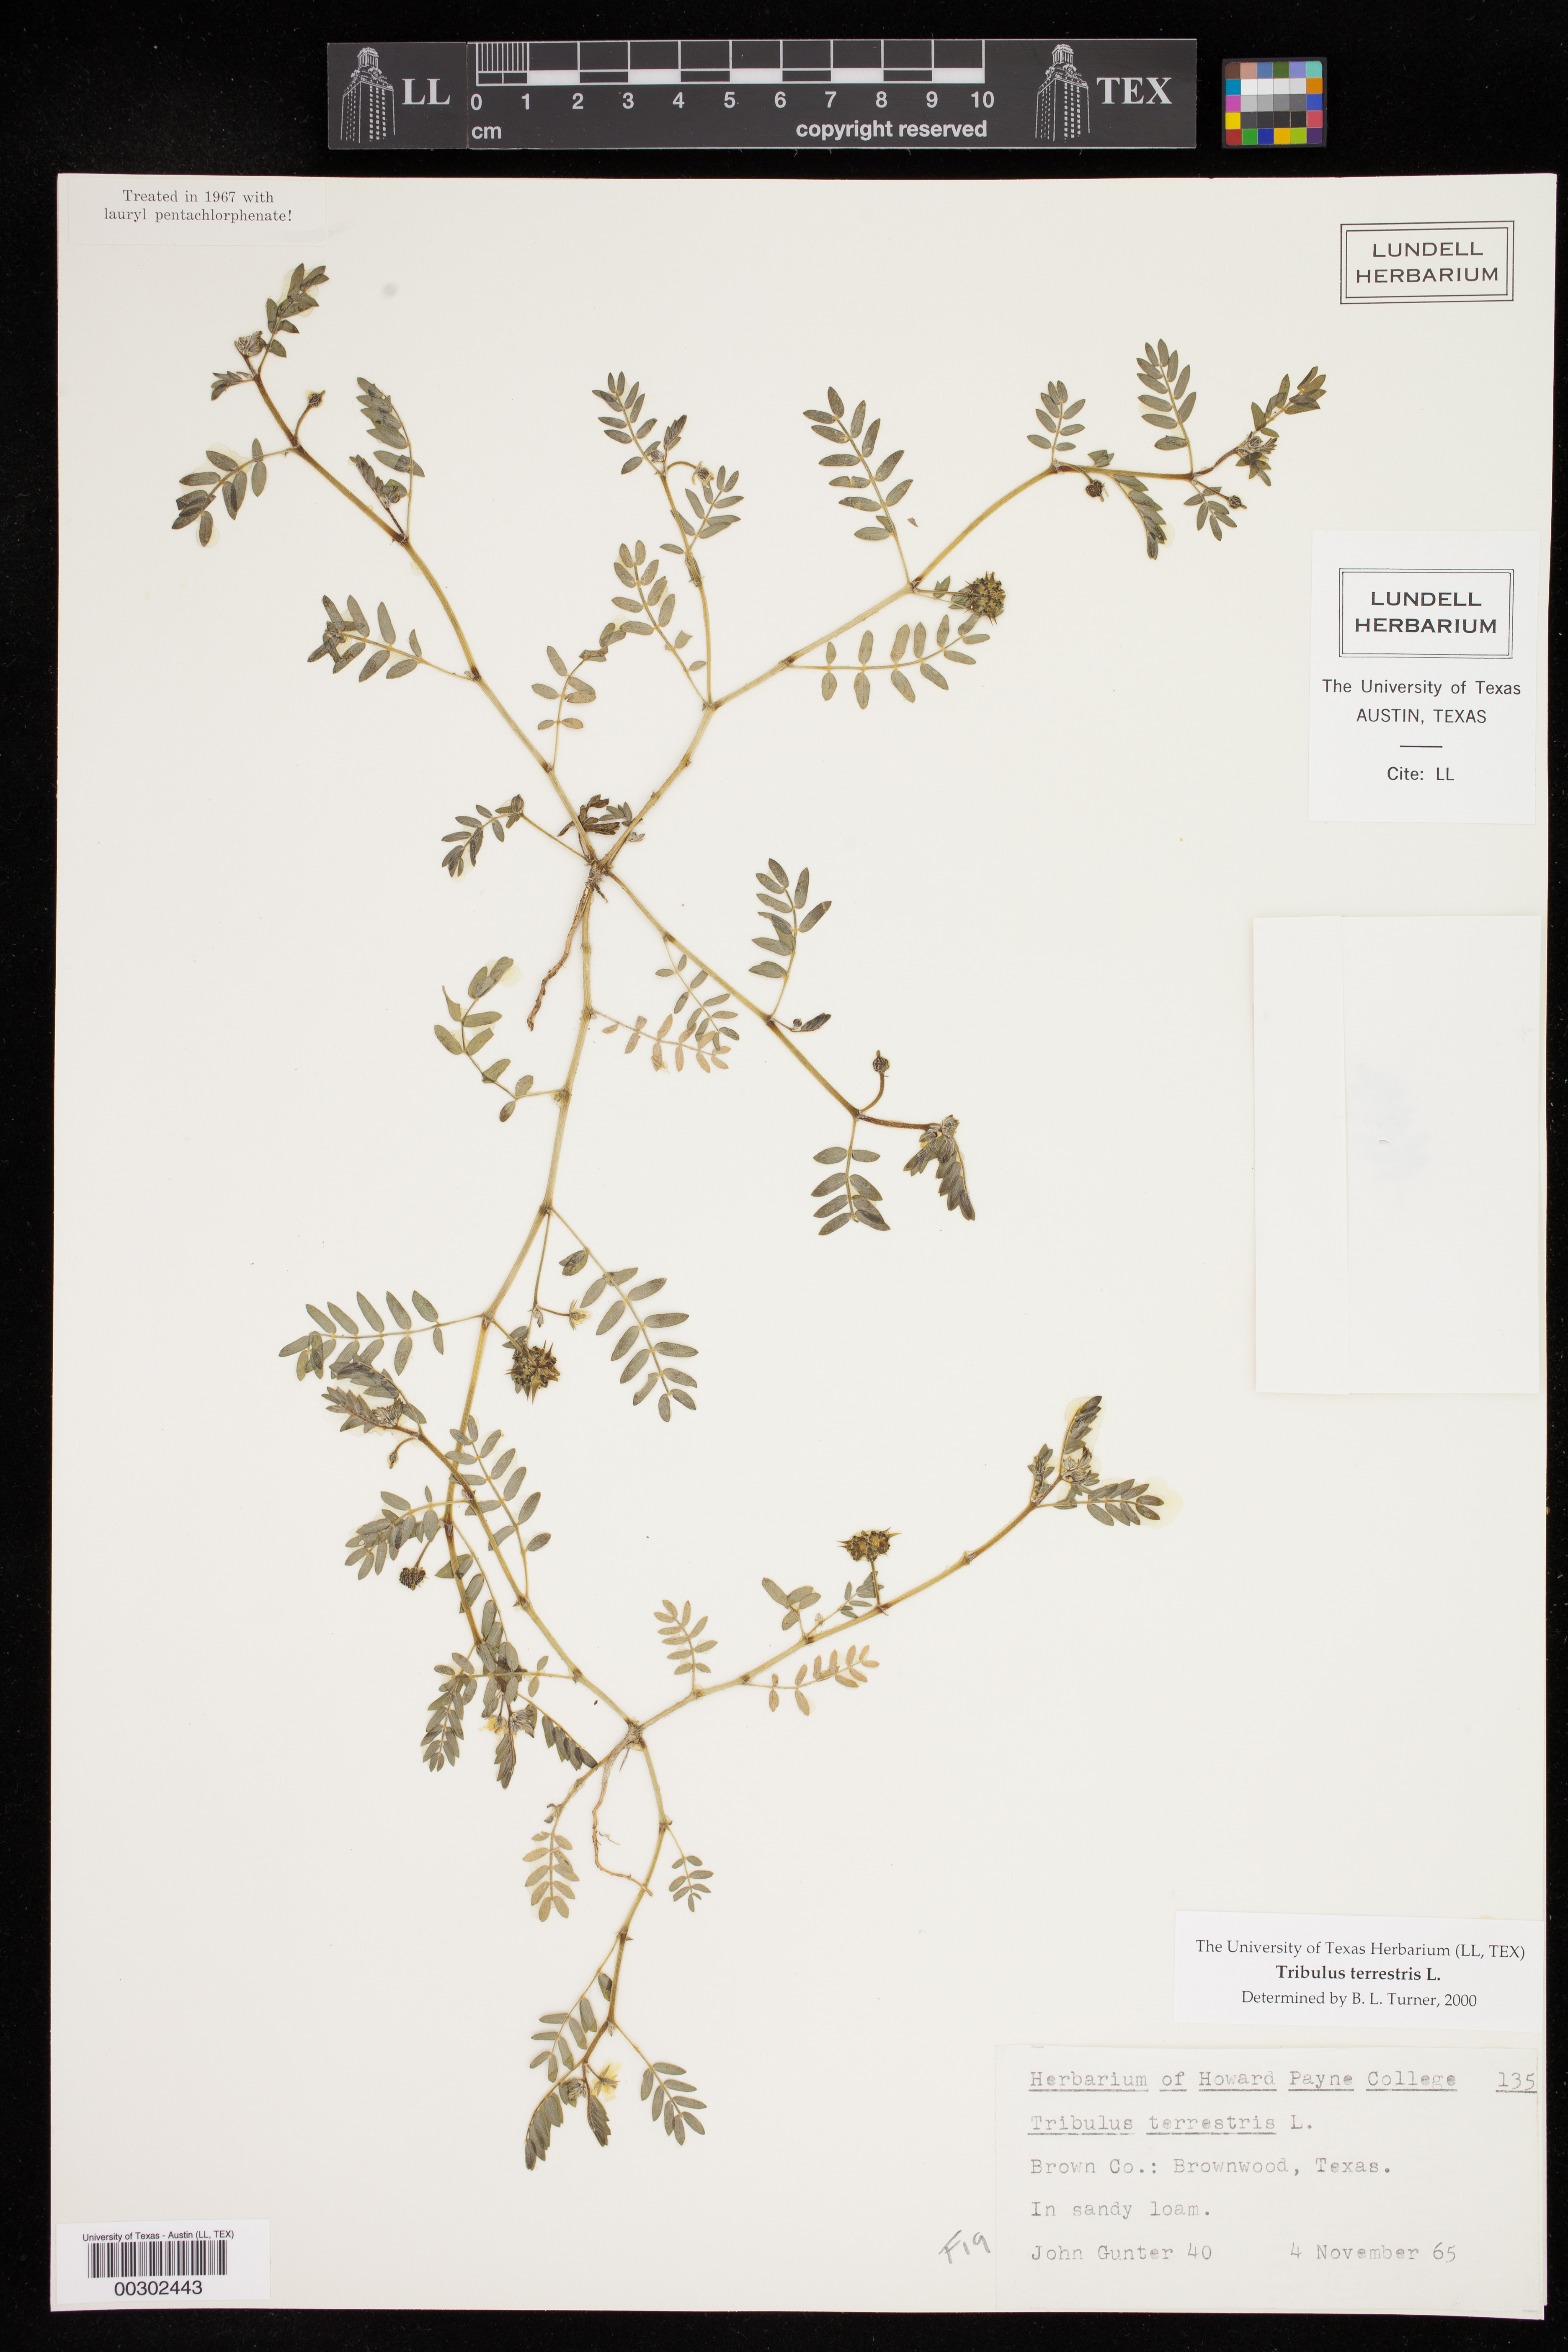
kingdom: Plantae
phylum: Tracheophyta
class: Magnoliopsida
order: Zygophyllales
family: Zygophyllaceae
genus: Tribulus
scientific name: Tribulus terrestris
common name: Puncturevine
